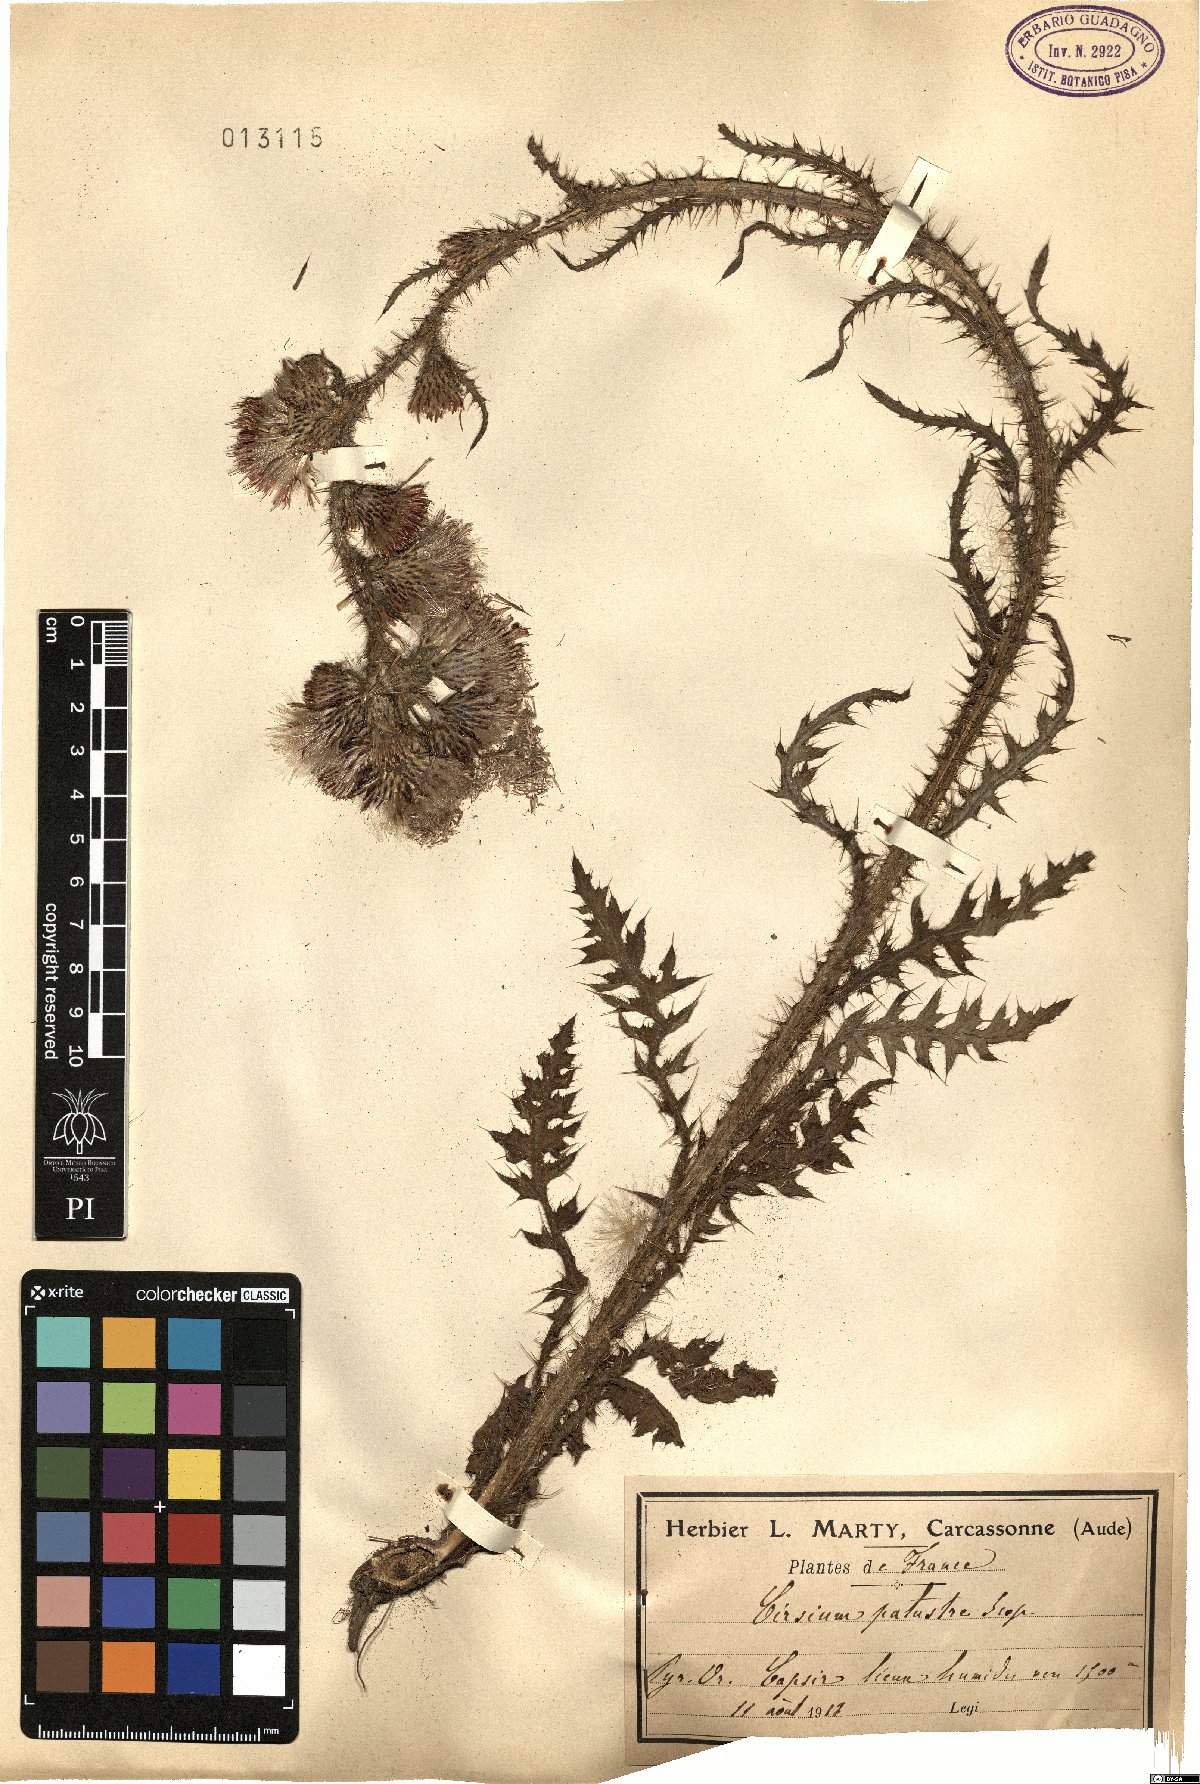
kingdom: Plantae
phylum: Tracheophyta
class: Magnoliopsida
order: Asterales
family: Asteraceae
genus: Cirsium
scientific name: Cirsium palustre
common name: Marsh thistle
